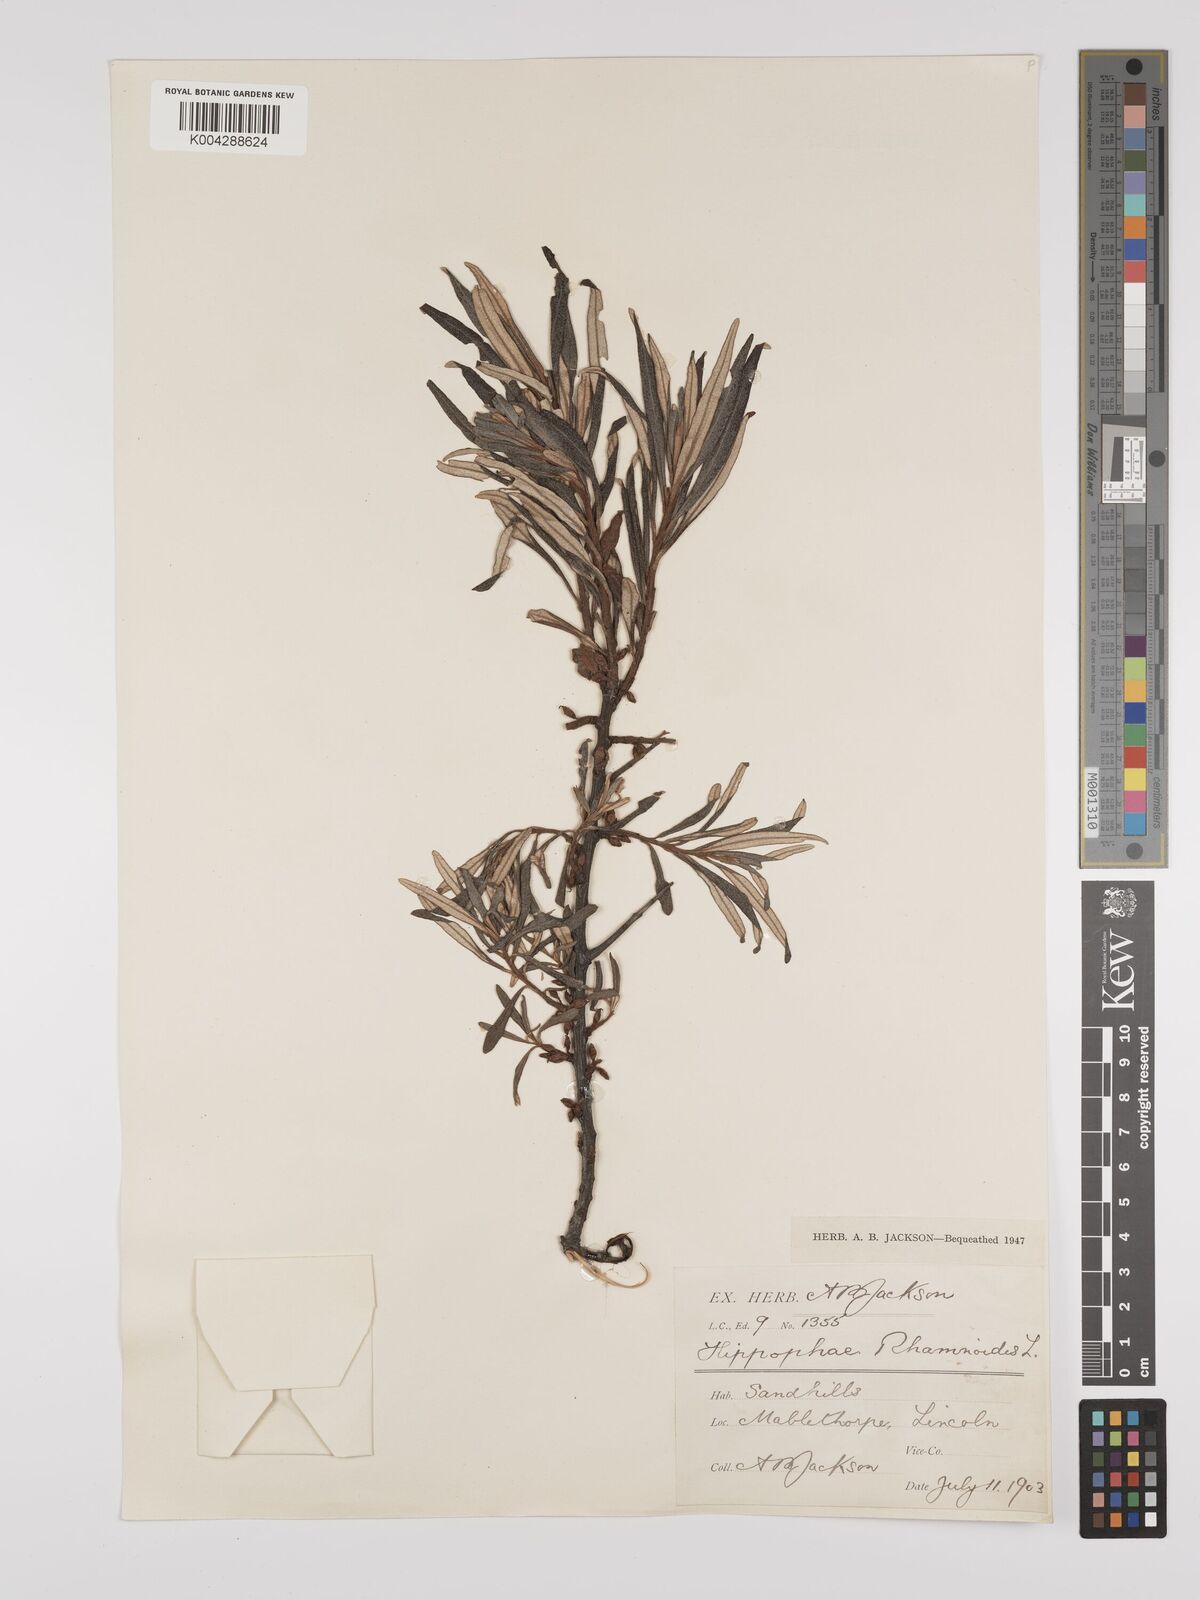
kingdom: Plantae
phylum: Tracheophyta
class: Magnoliopsida
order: Rosales
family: Elaeagnaceae
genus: Hippophae
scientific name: Hippophae rhamnoides
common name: Sea-buckthorn
